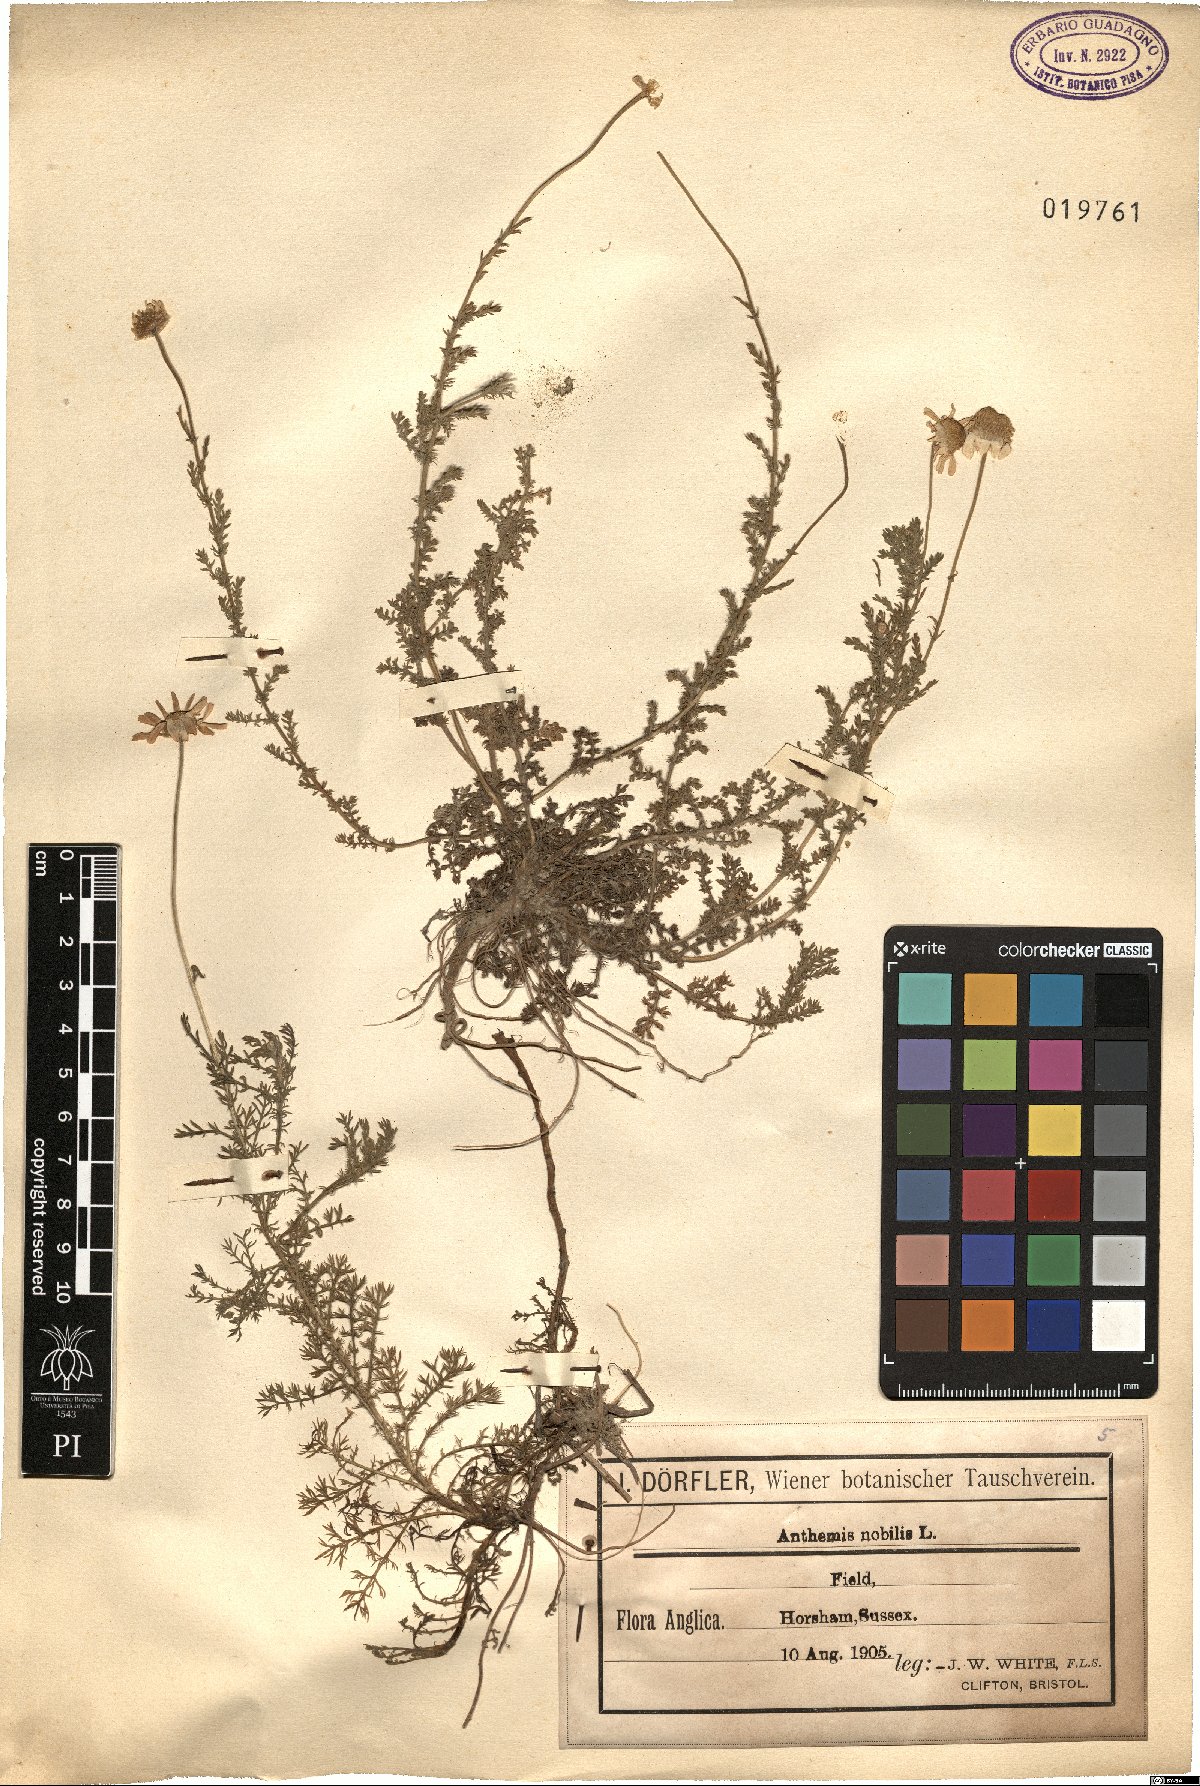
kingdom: Plantae
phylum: Tracheophyta
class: Magnoliopsida
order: Asterales
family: Asteraceae
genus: Chamaemelum
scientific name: Chamaemelum nobile
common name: Roman chamomile
